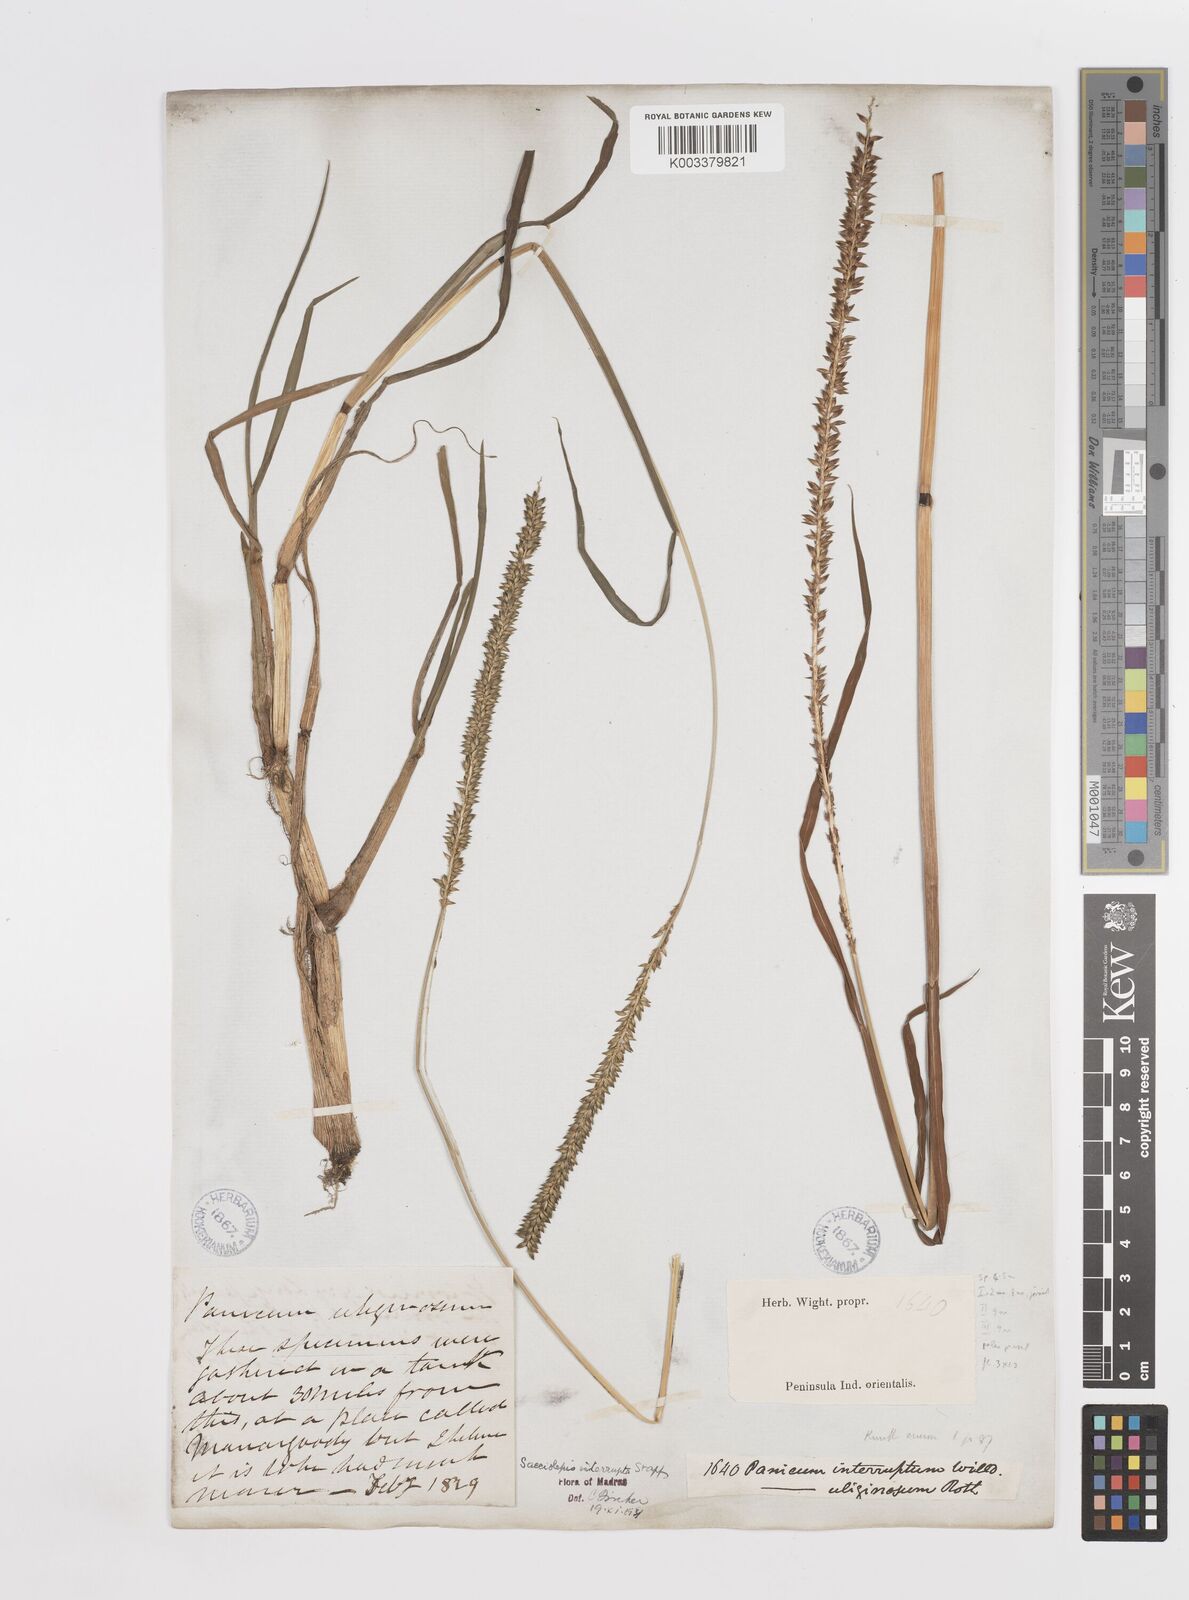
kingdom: Plantae
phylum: Tracheophyta
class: Liliopsida
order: Poales
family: Poaceae
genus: Sacciolepis
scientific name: Sacciolepis interrupta
